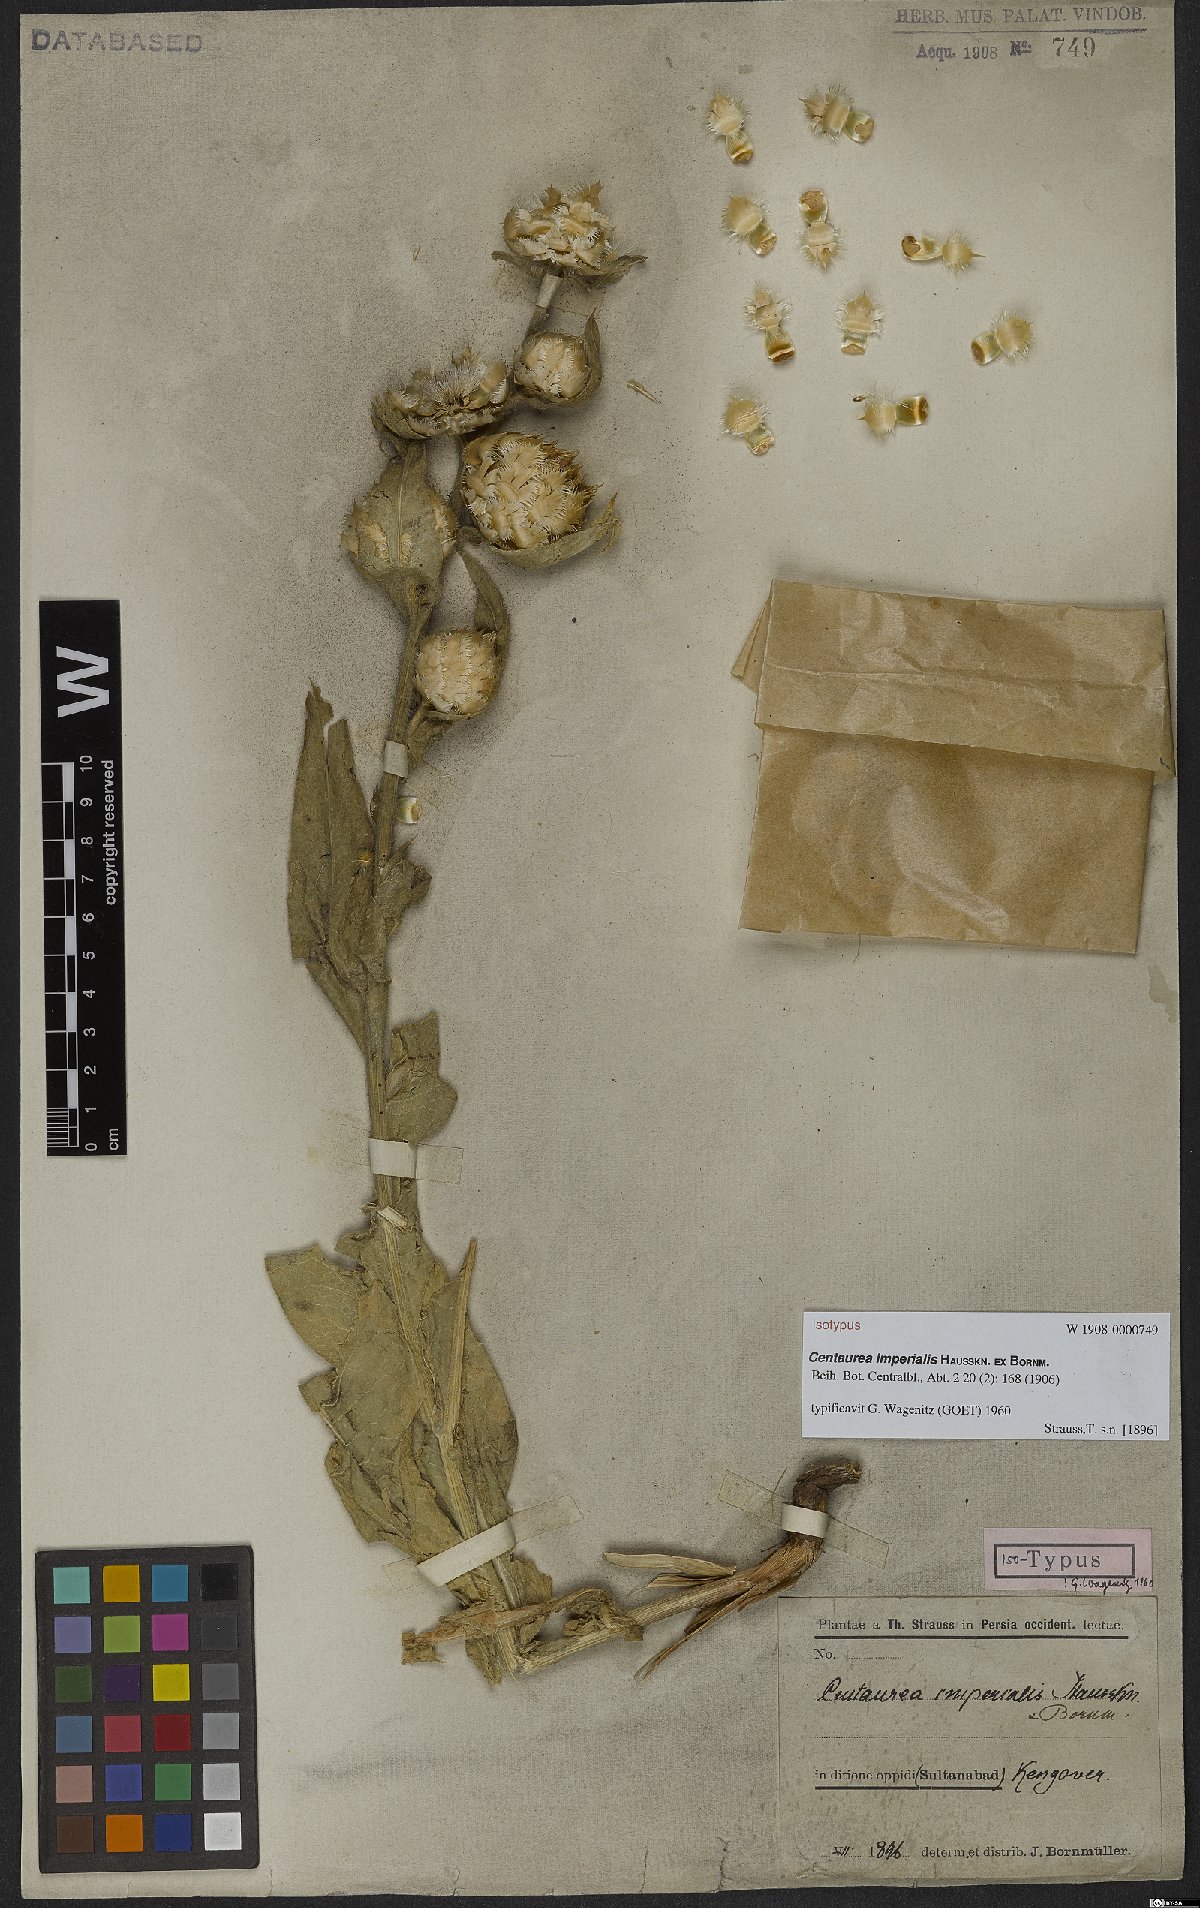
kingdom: Plantae
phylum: Tracheophyta
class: Magnoliopsida
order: Asterales
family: Asteraceae
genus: Centaurea
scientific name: Centaurea imperialis
